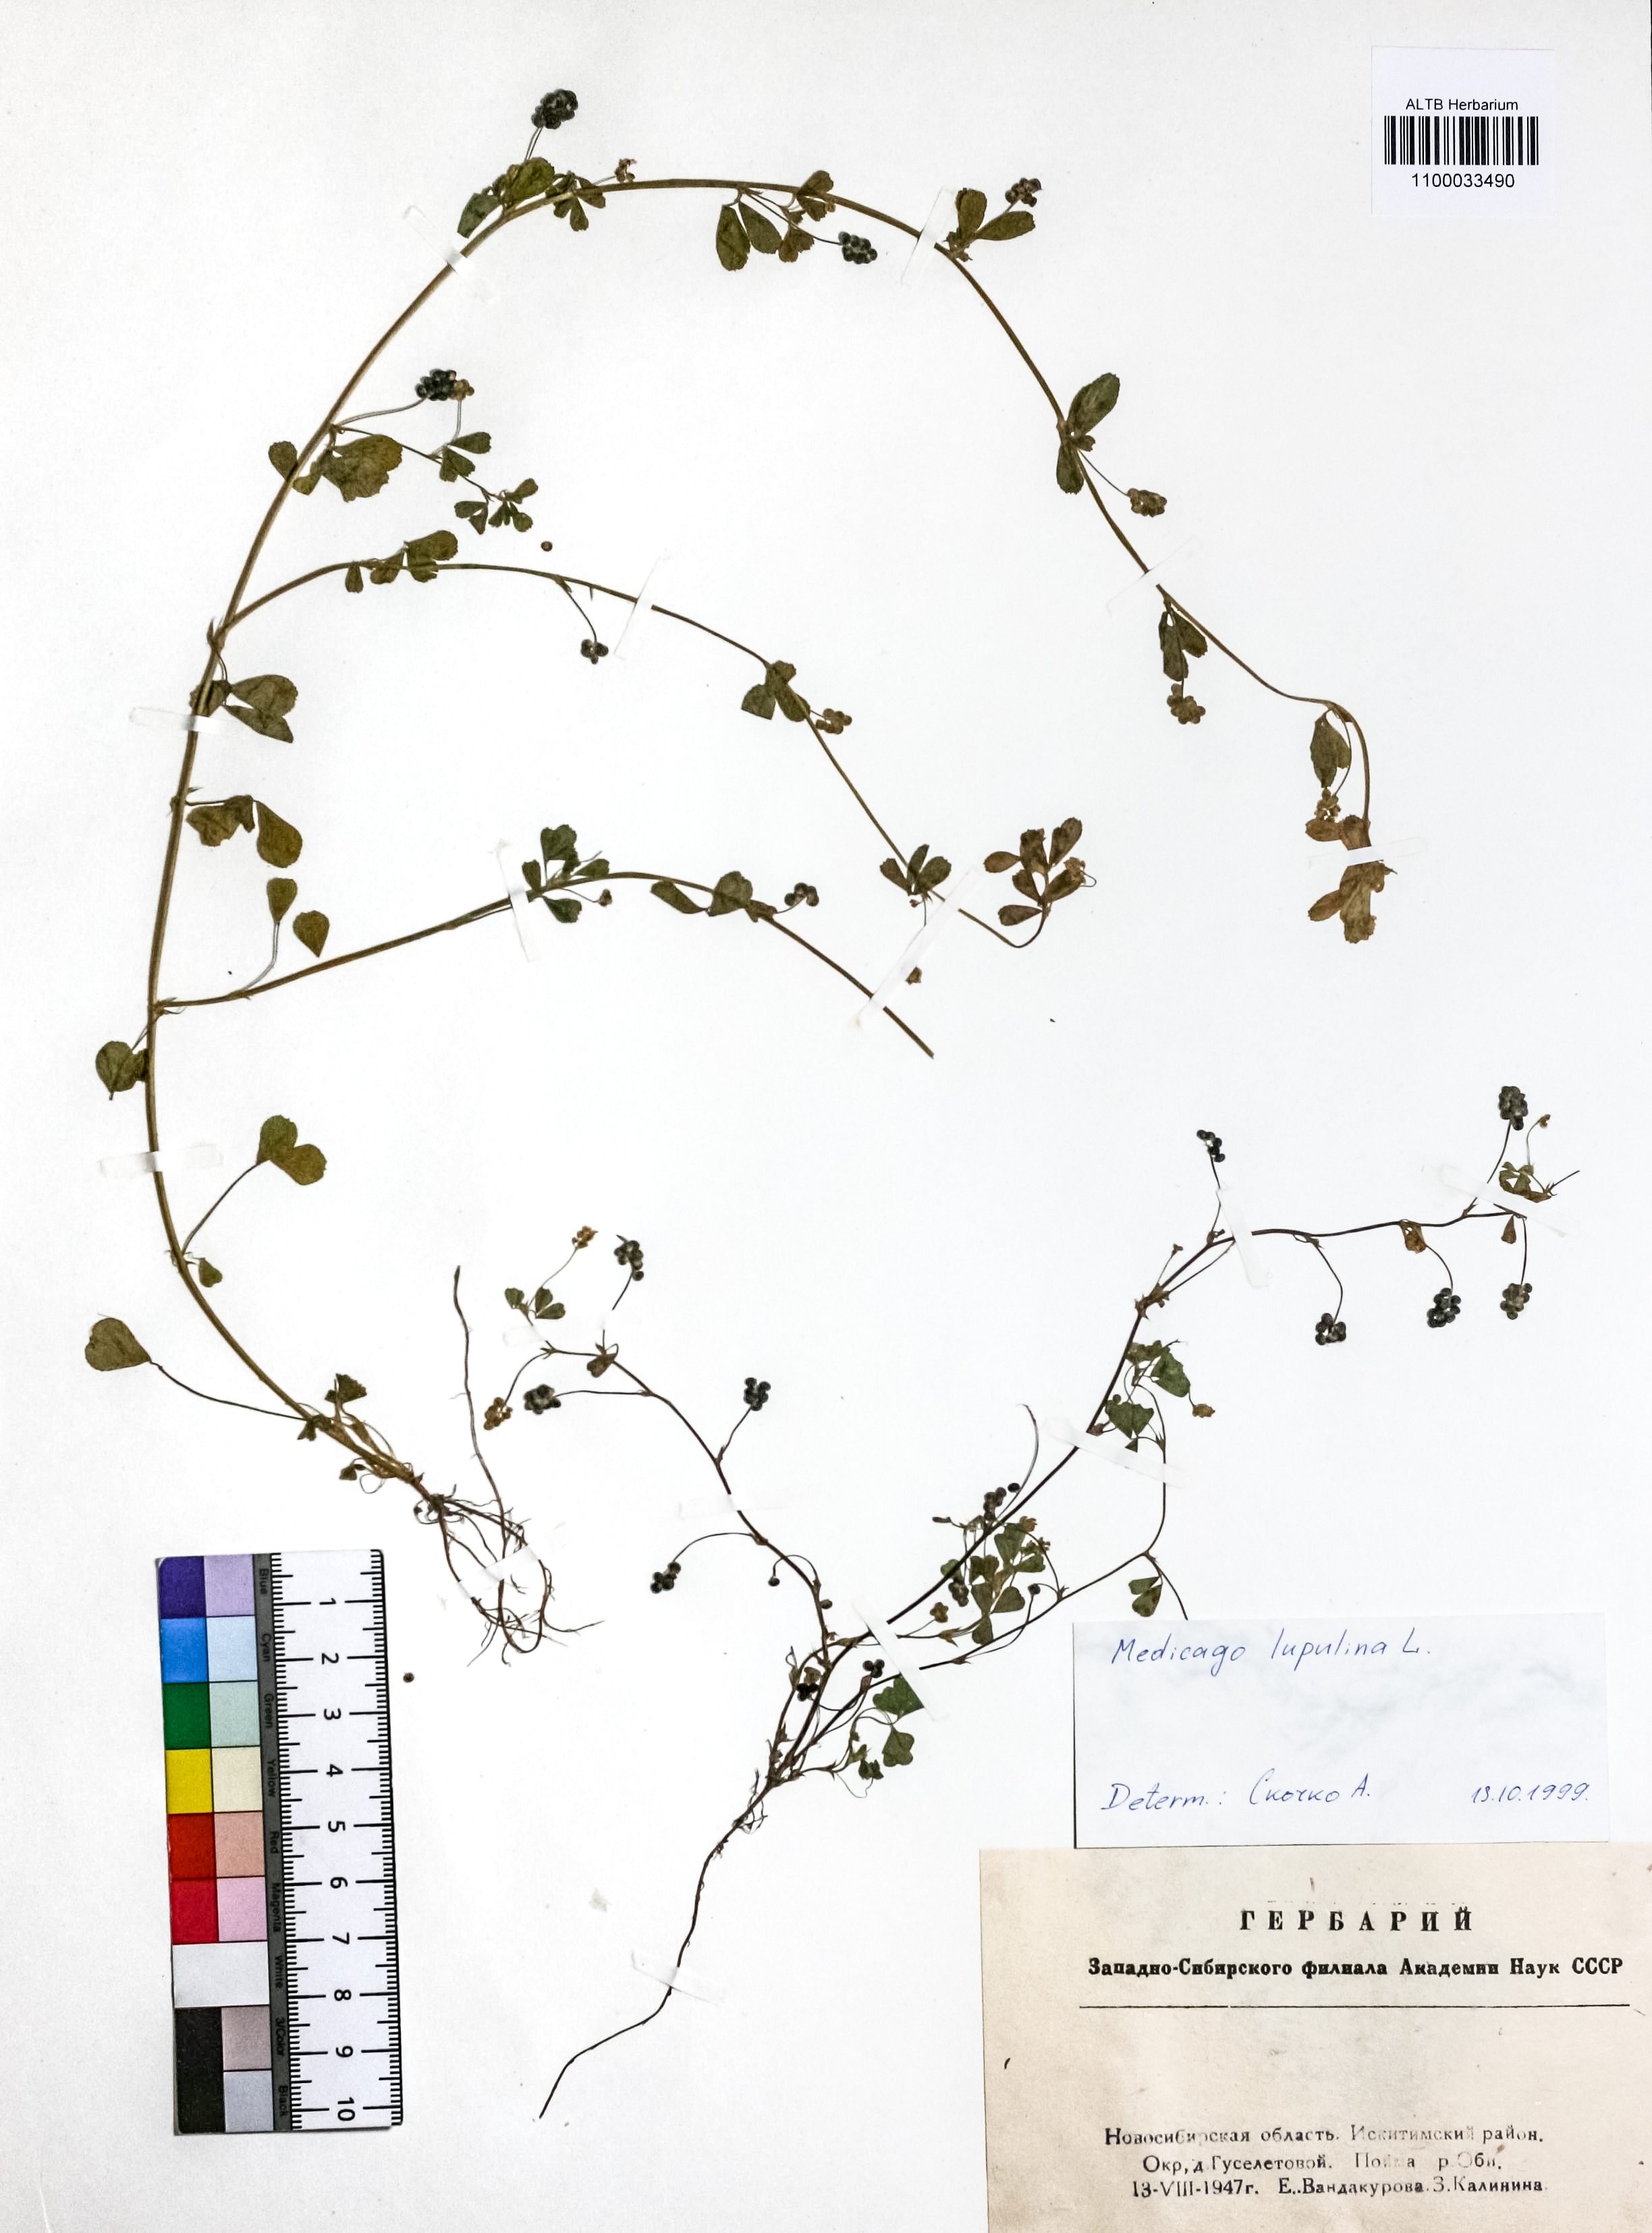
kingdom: Plantae
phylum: Tracheophyta
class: Magnoliopsida
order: Fabales
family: Fabaceae
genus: Medicago
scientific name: Medicago lupulina
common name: Black medick
